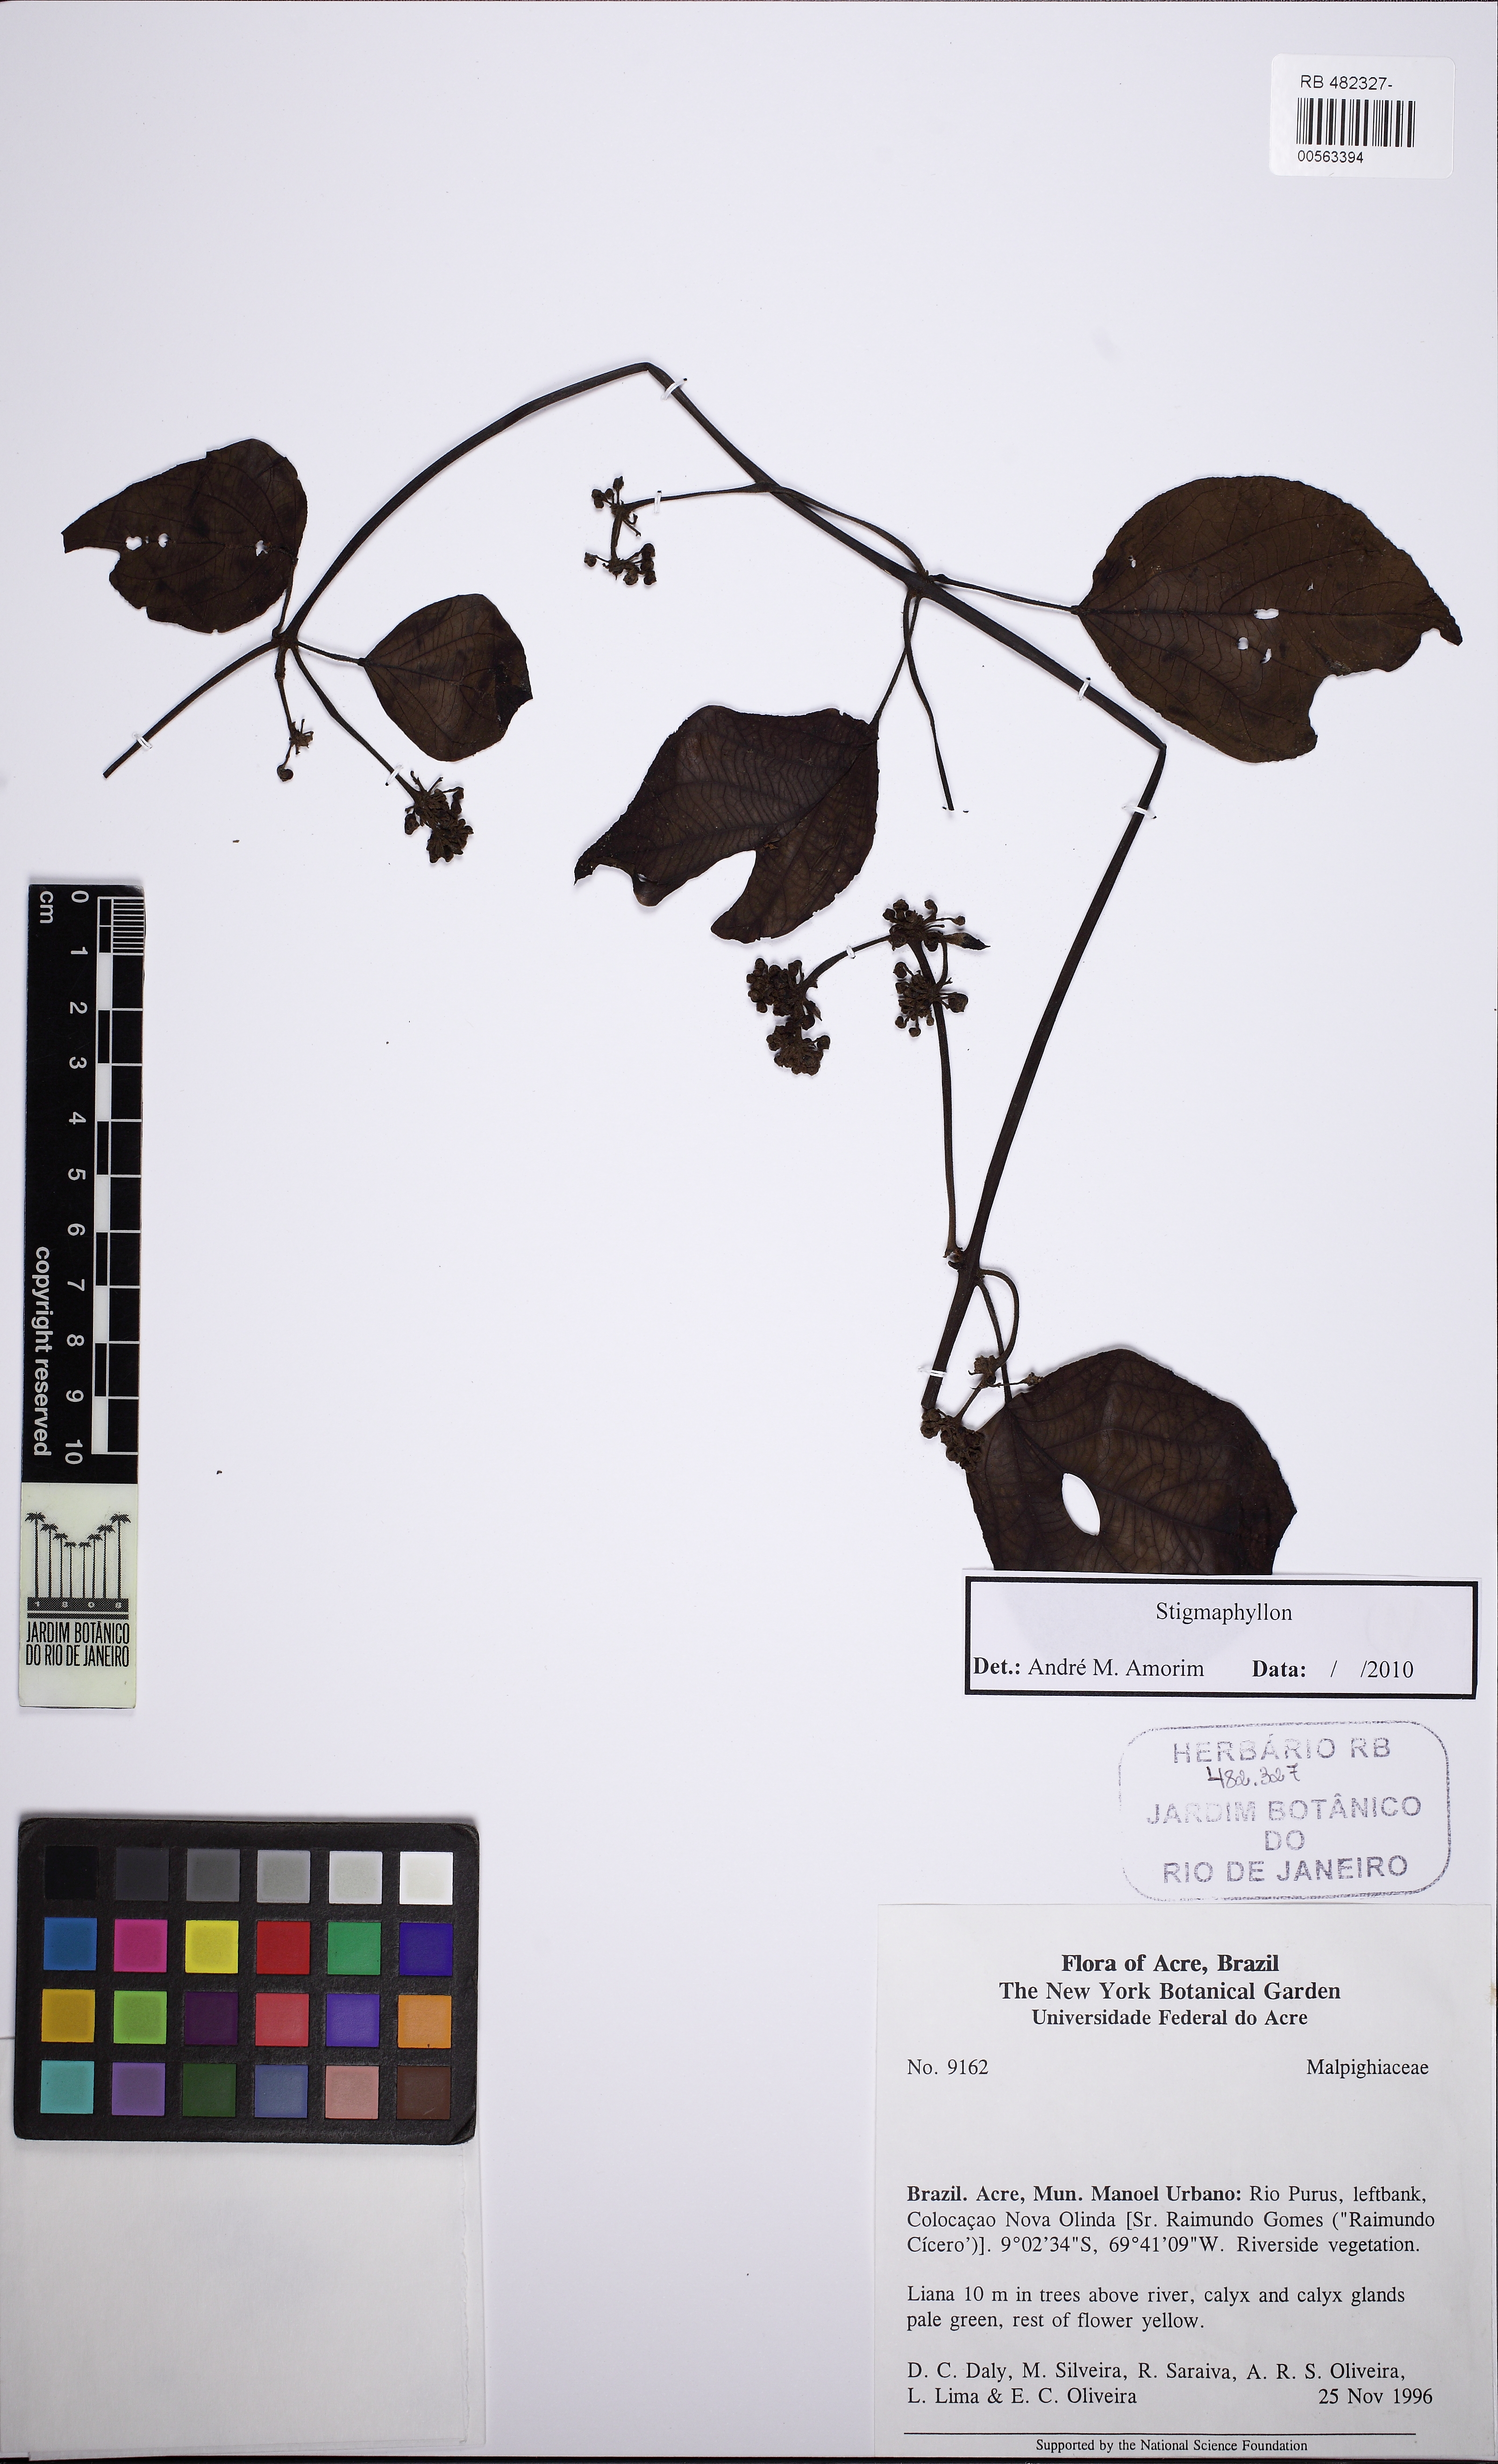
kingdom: Plantae
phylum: Tracheophyta
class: Magnoliopsida
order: Malpighiales
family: Malpighiaceae
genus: Stigmaphyllon
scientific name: Stigmaphyllon
